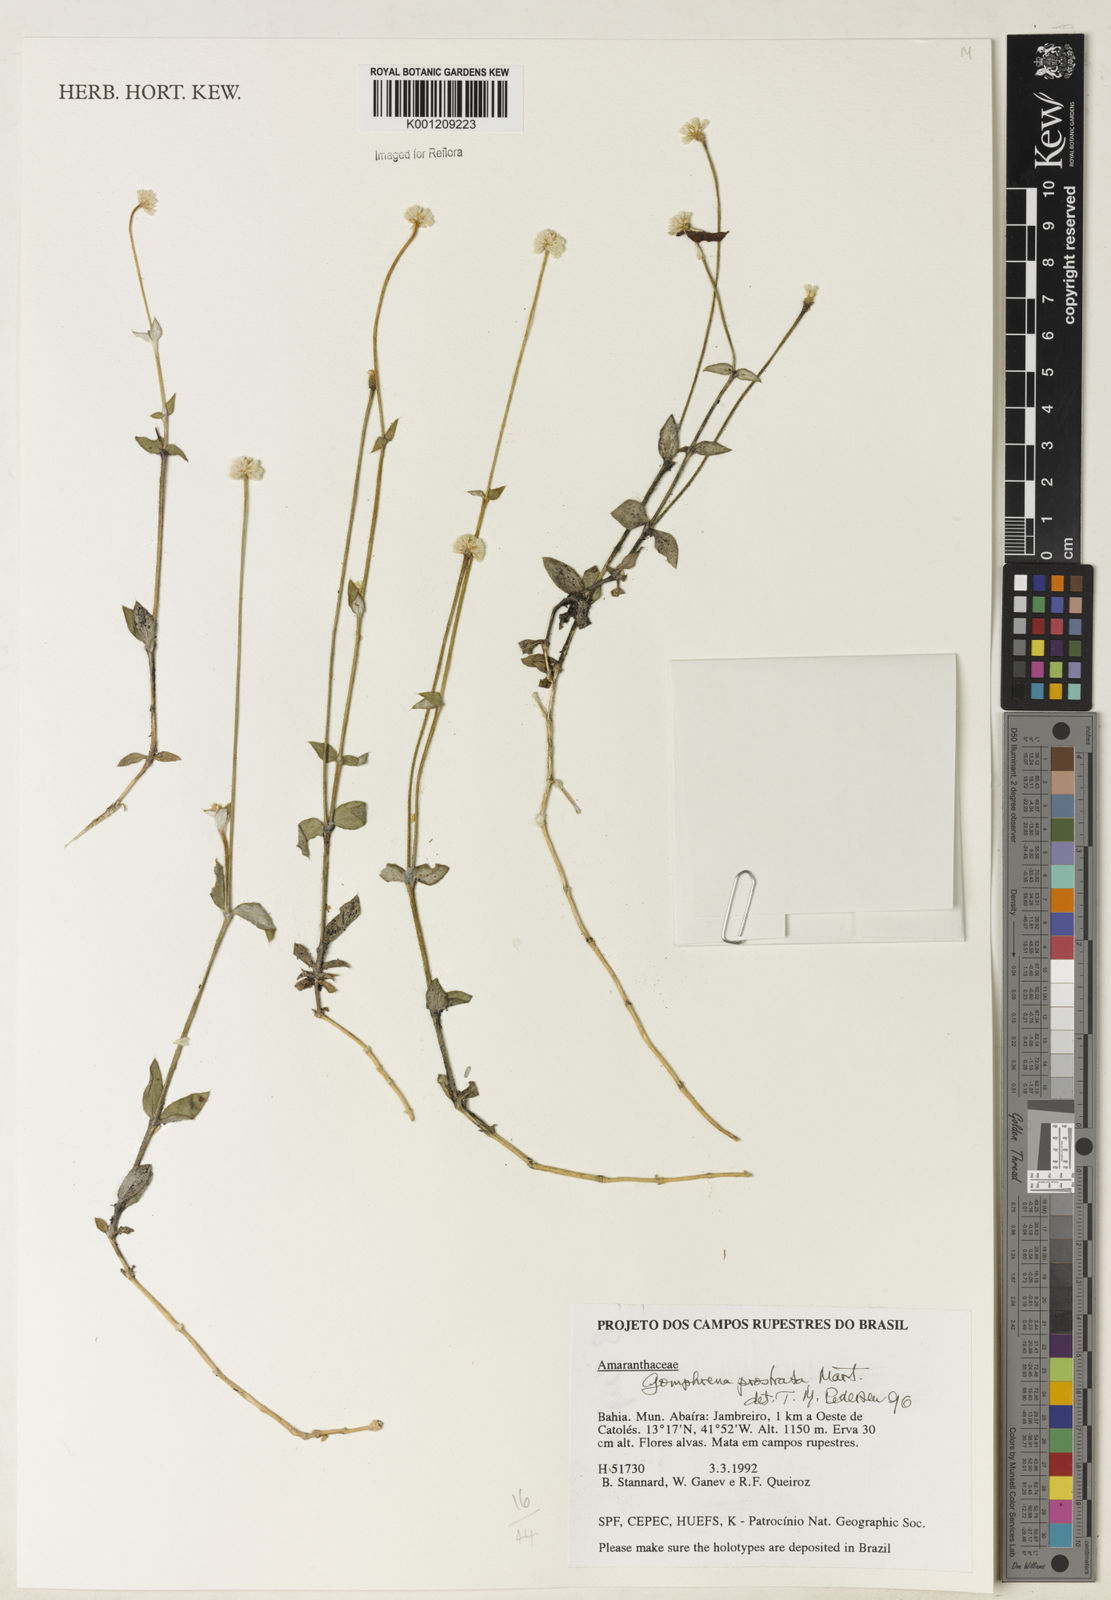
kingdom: Plantae
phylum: Tracheophyta
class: Magnoliopsida
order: Caryophyllales
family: Amaranthaceae
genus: Gomphrena
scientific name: Gomphrena prostrata
